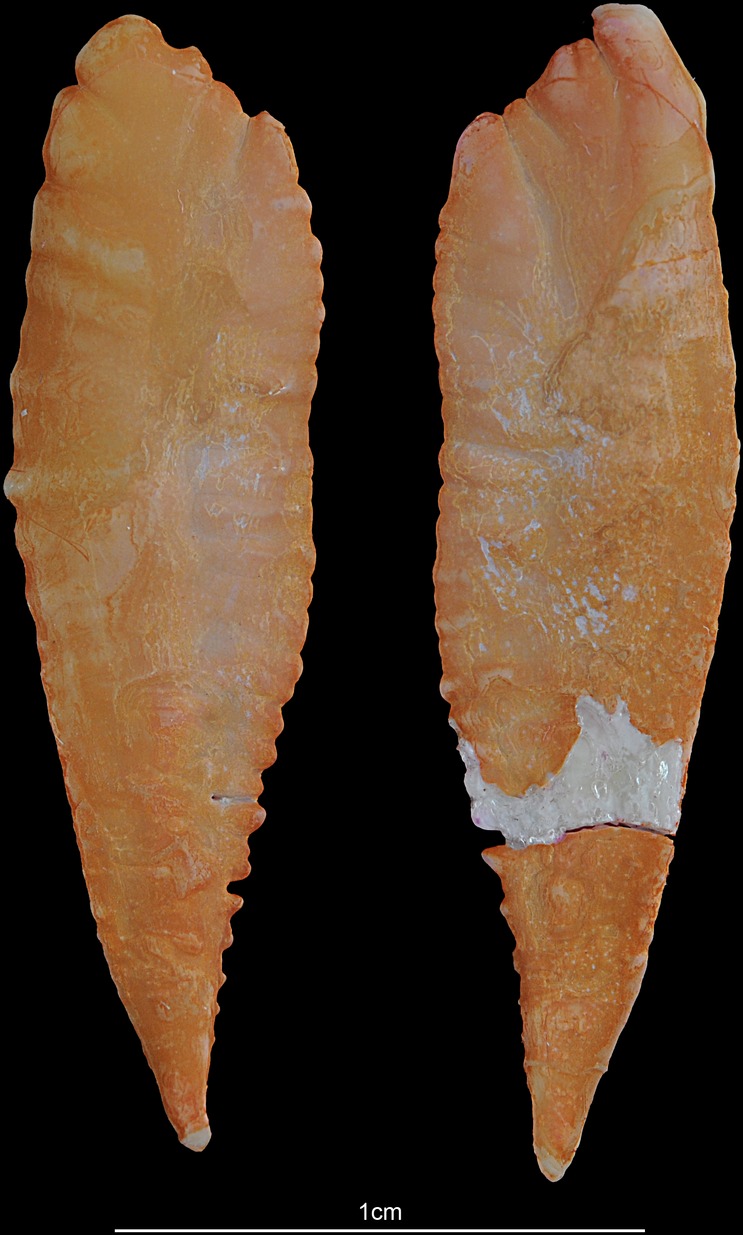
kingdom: Animalia
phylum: Chordata
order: Gadiformes
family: Gadidae
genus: Merlangius
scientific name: Merlangius merlangus
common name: Whiting
